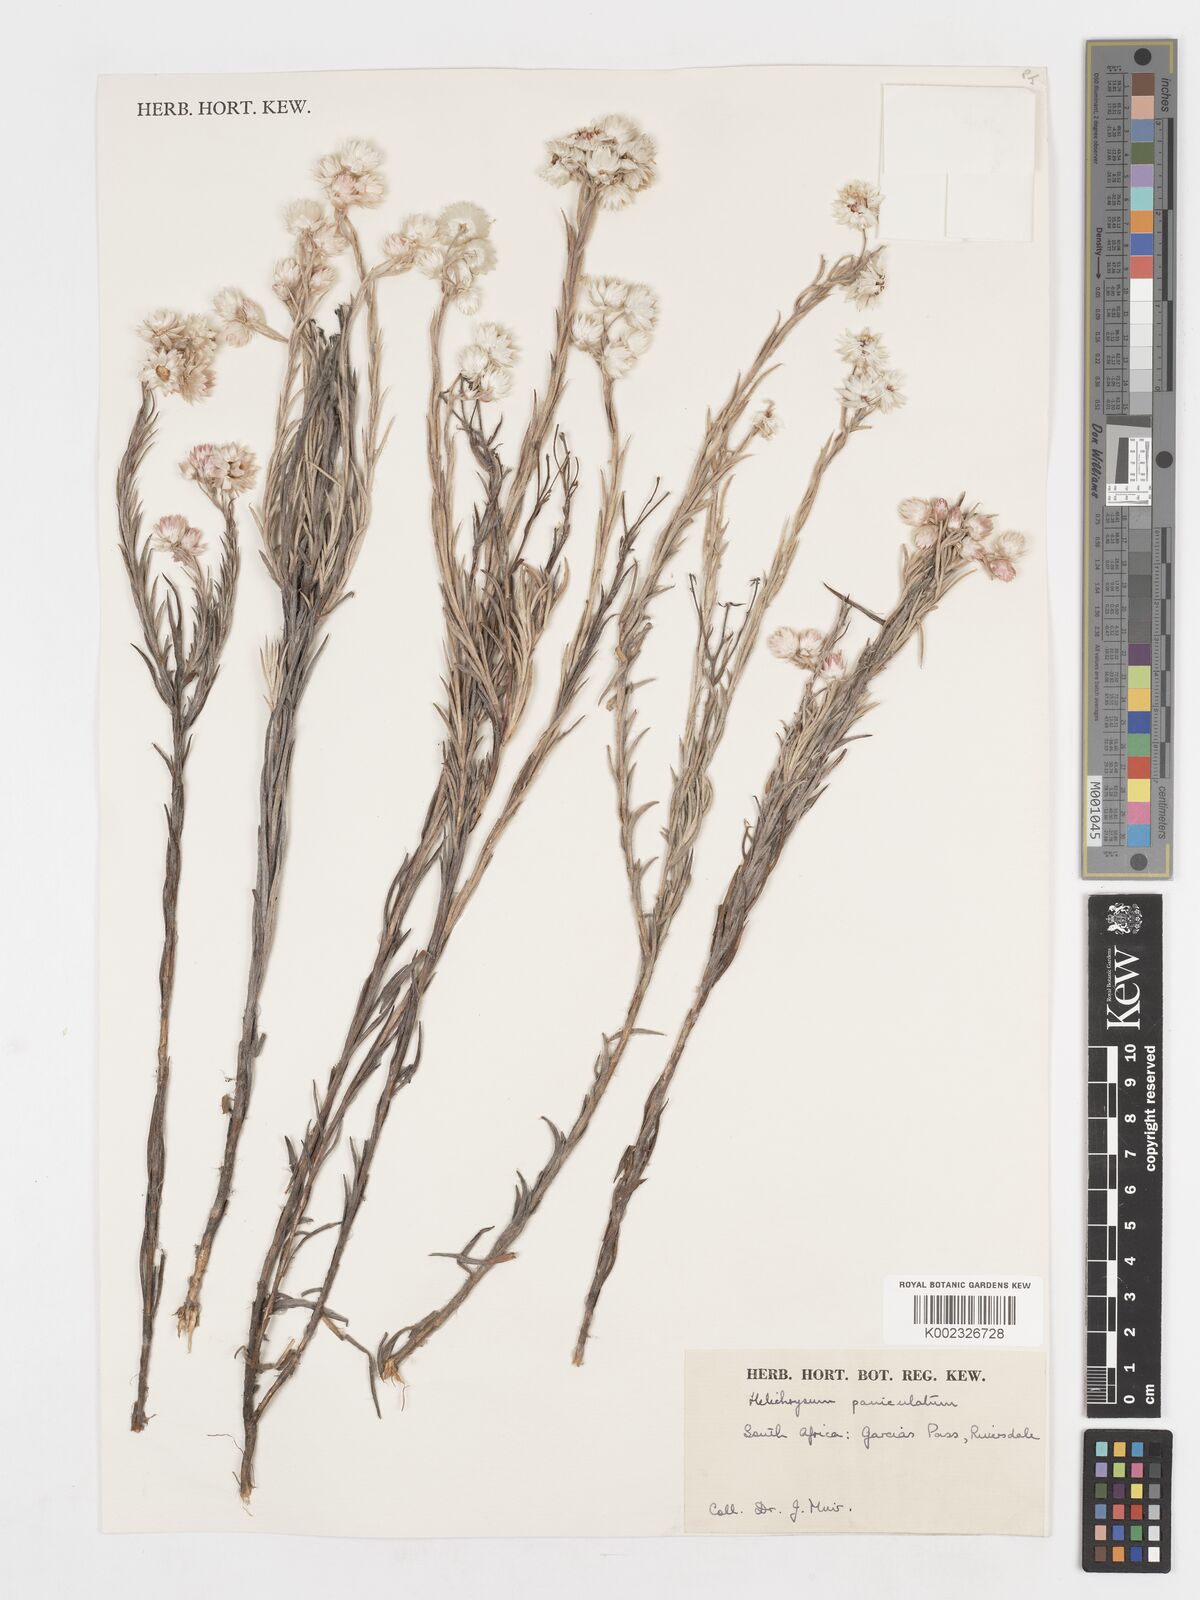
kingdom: Plantae
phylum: Tracheophyta
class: Magnoliopsida
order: Asterales
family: Asteraceae
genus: Achyranthemum
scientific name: Achyranthemum paniculatum
